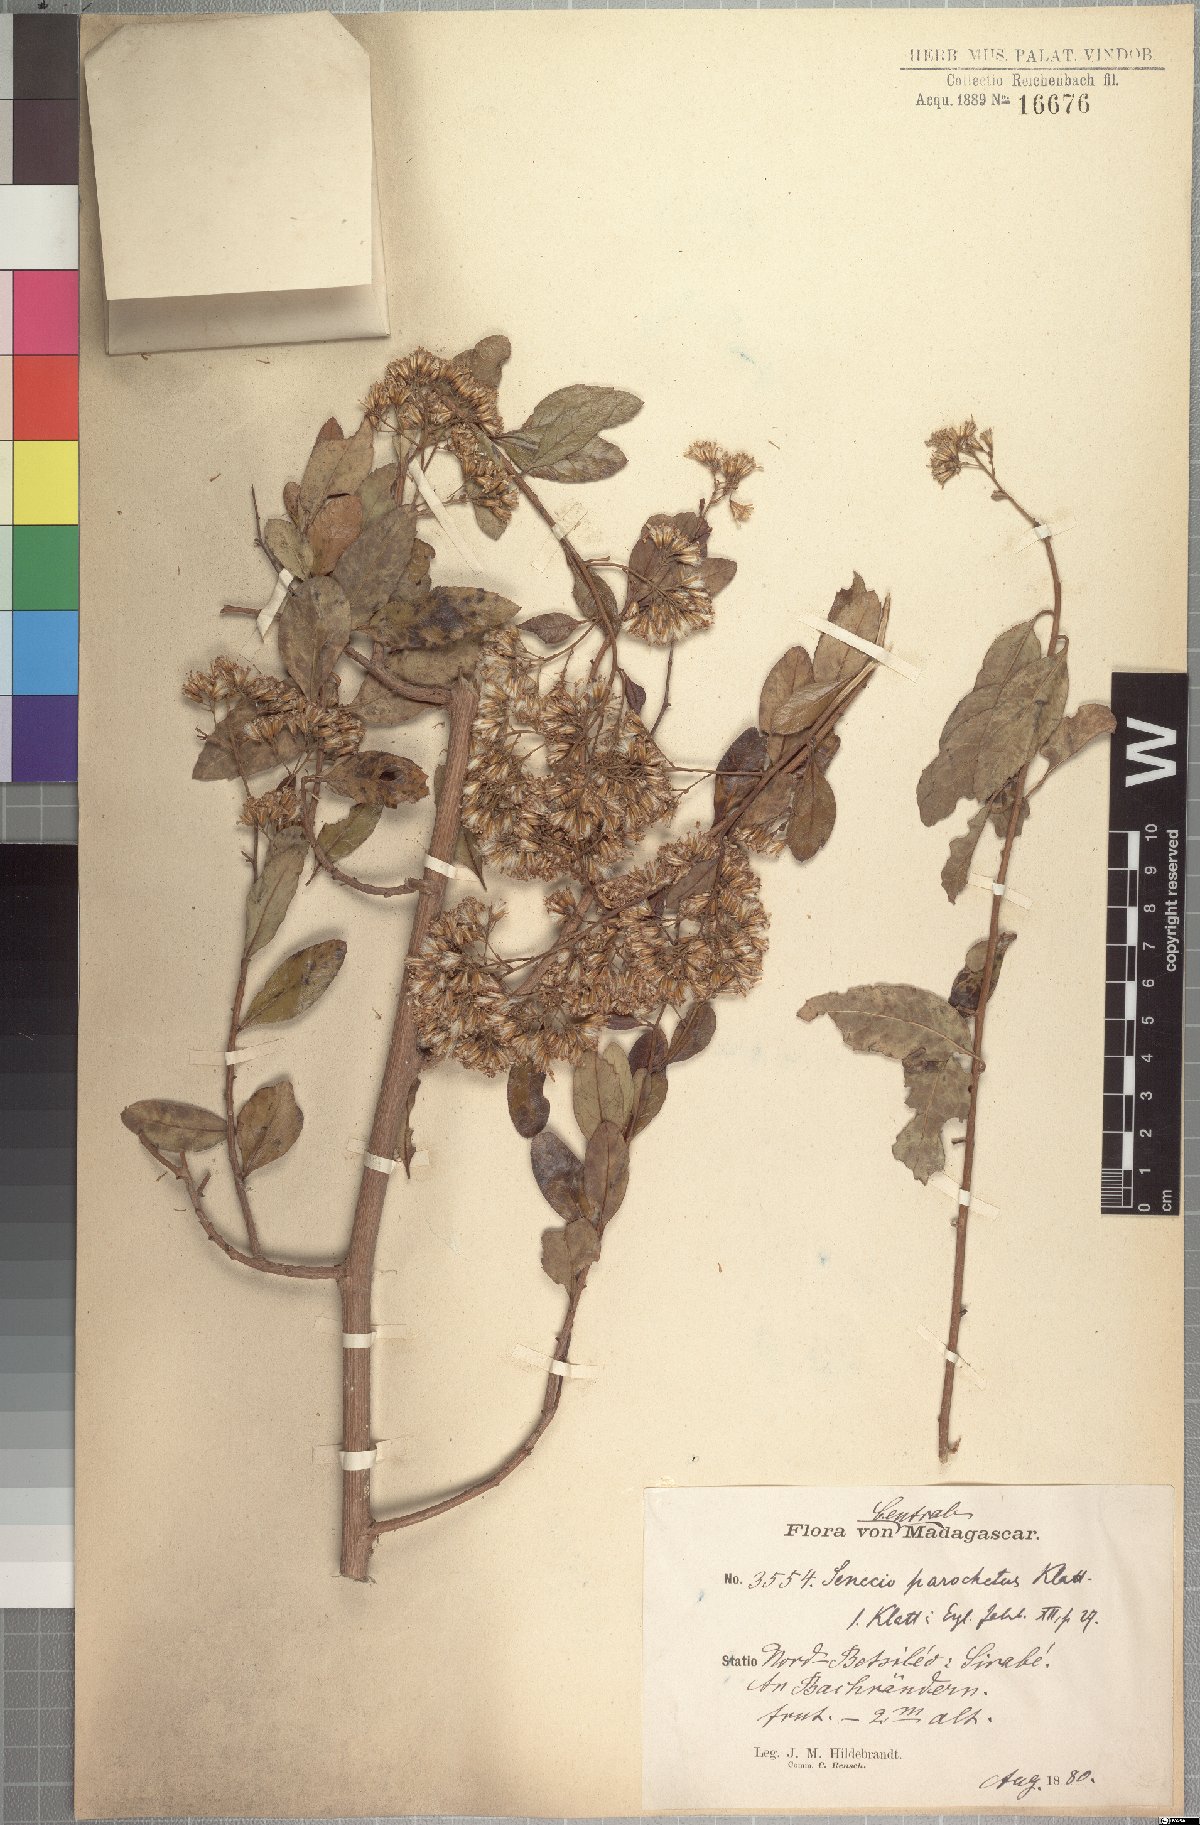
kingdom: Plantae
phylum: Tracheophyta
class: Magnoliopsida
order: Asterales
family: Asteraceae
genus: Hubertia
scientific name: Hubertia faujasioides
